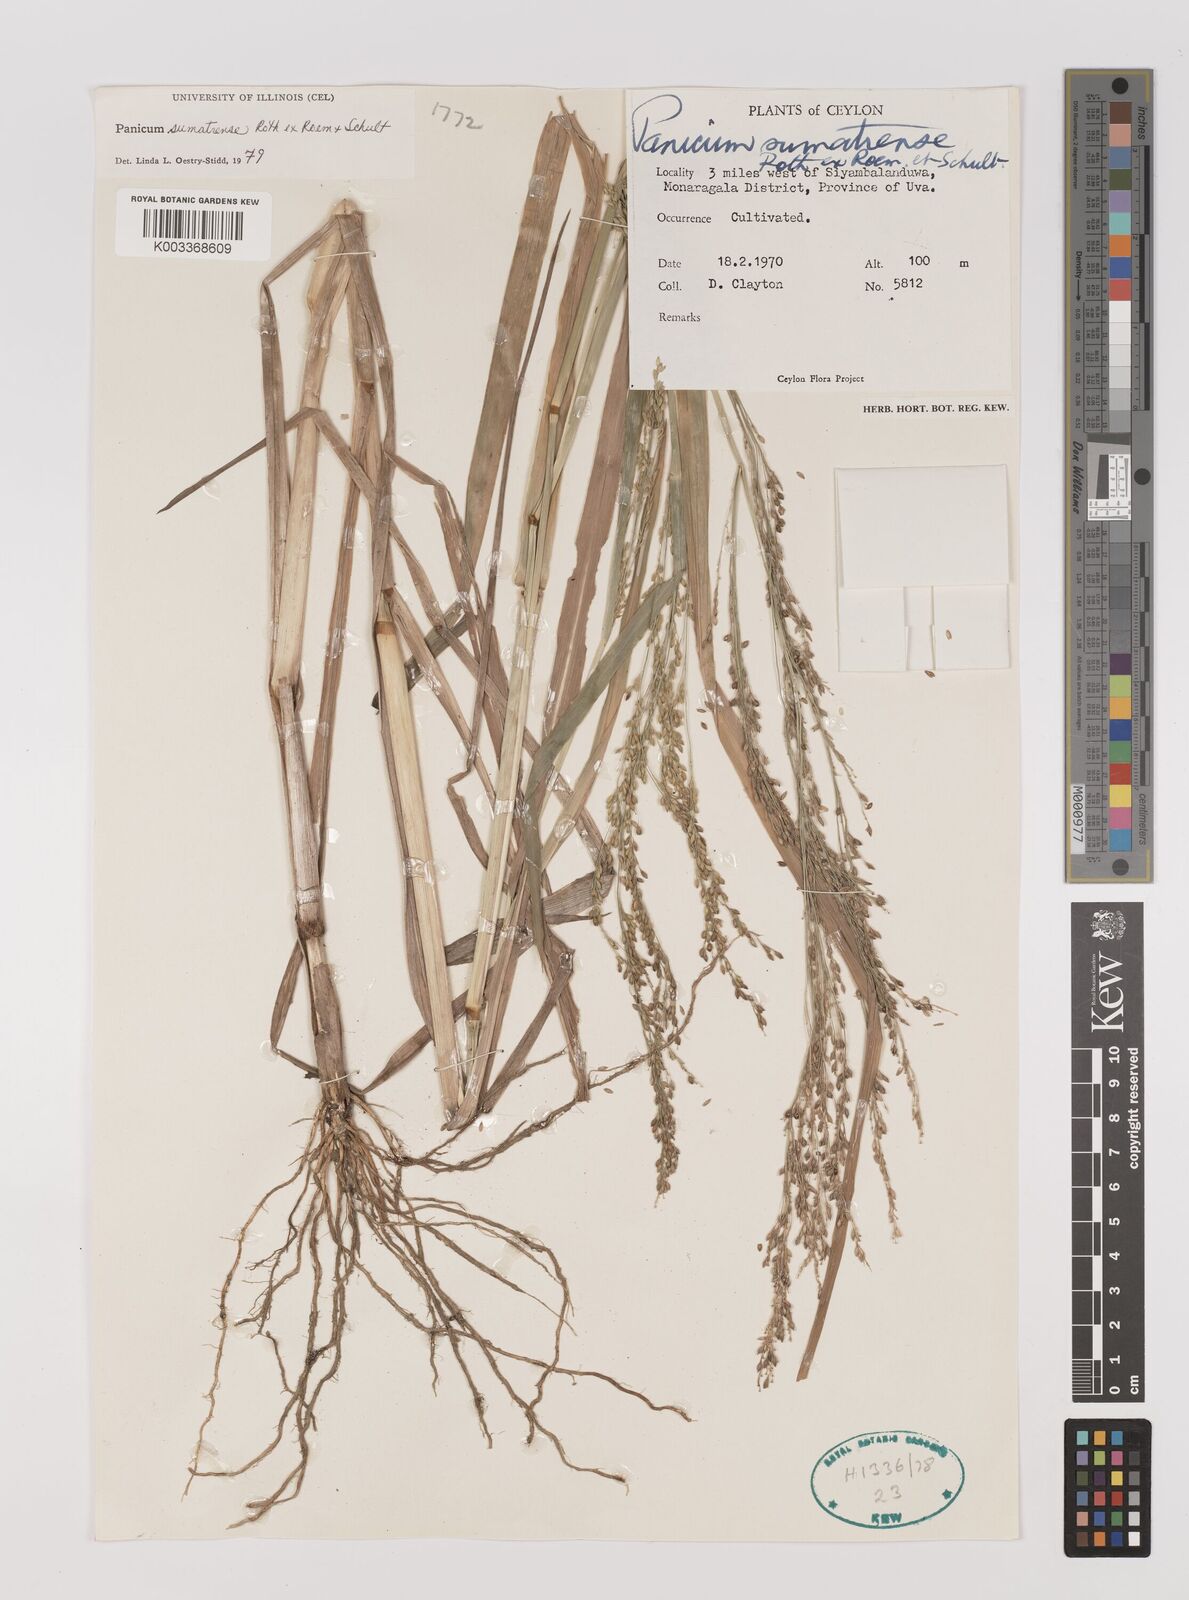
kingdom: Plantae
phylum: Tracheophyta
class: Liliopsida
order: Poales
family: Poaceae
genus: Panicum
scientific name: Panicum sumatrense
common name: Little millet
